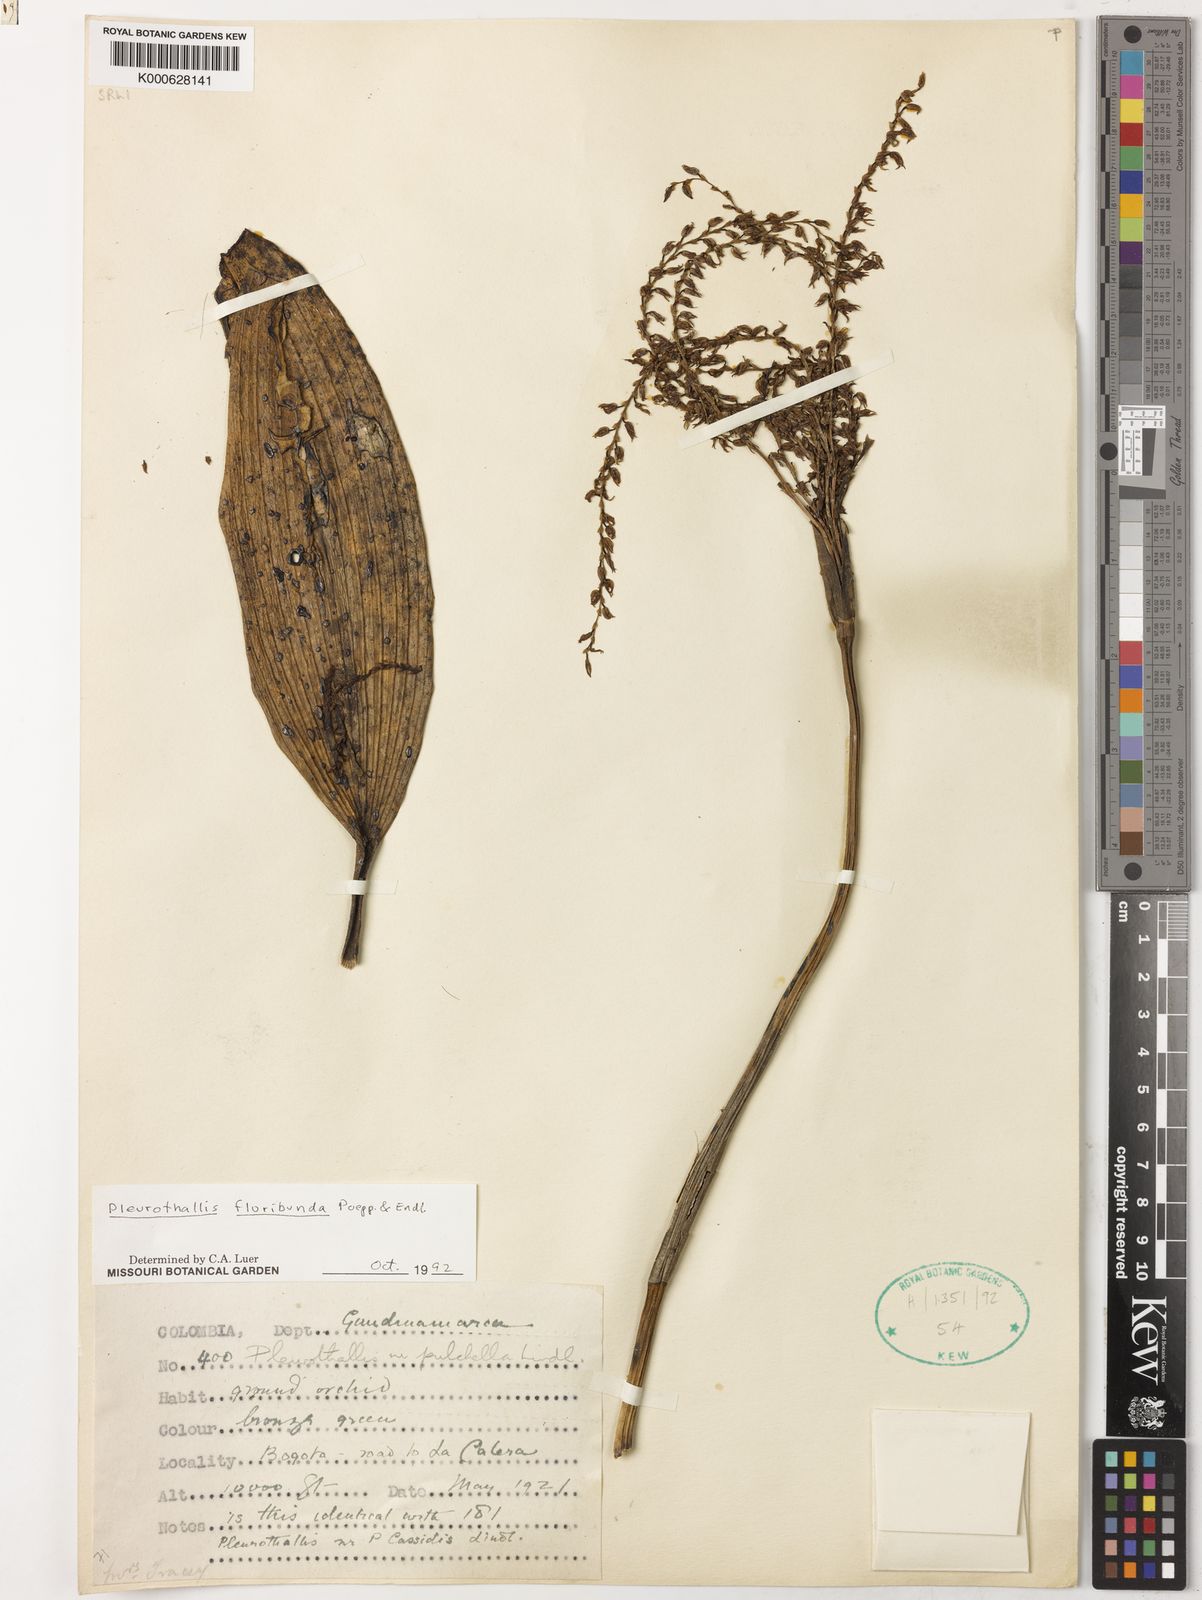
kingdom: Plantae
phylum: Tracheophyta
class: Liliopsida
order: Asparagales
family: Orchidaceae
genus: Pleurothallis
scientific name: Pleurothallis
